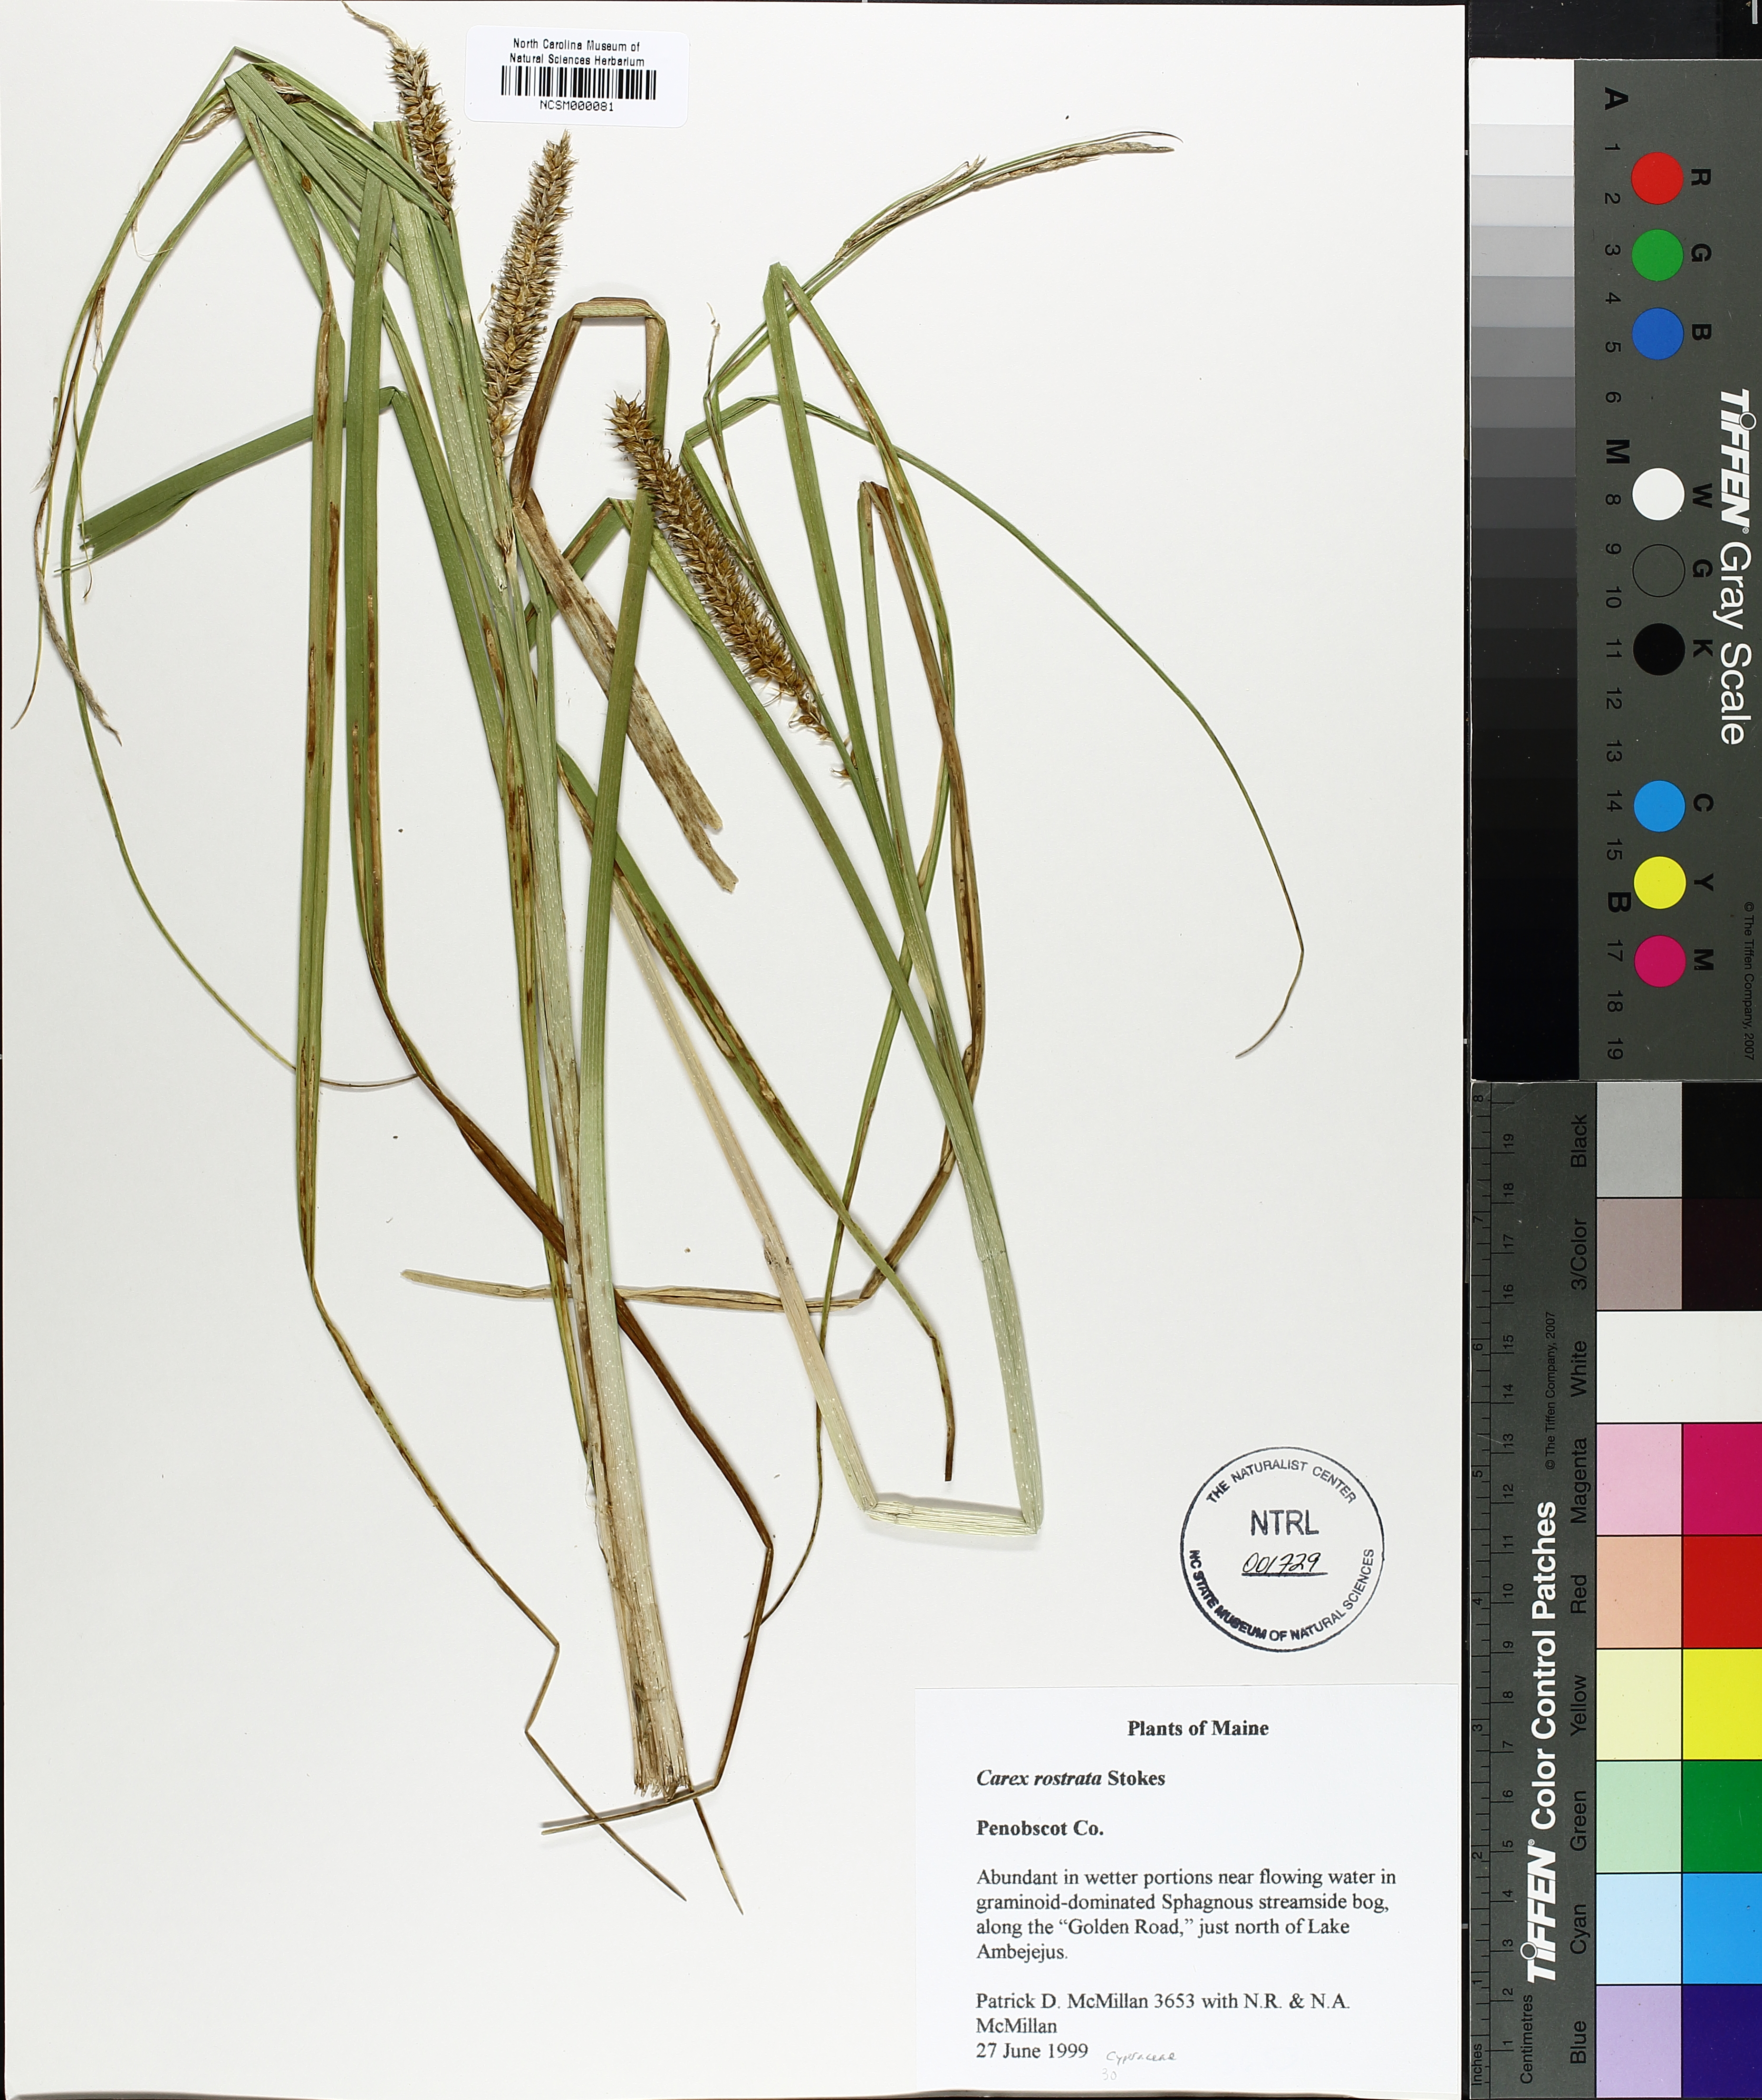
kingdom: Plantae
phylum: Tracheophyta
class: Liliopsida
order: Poales
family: Cyperaceae
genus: Carex
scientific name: Carex rostrata
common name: Bottle sedge
